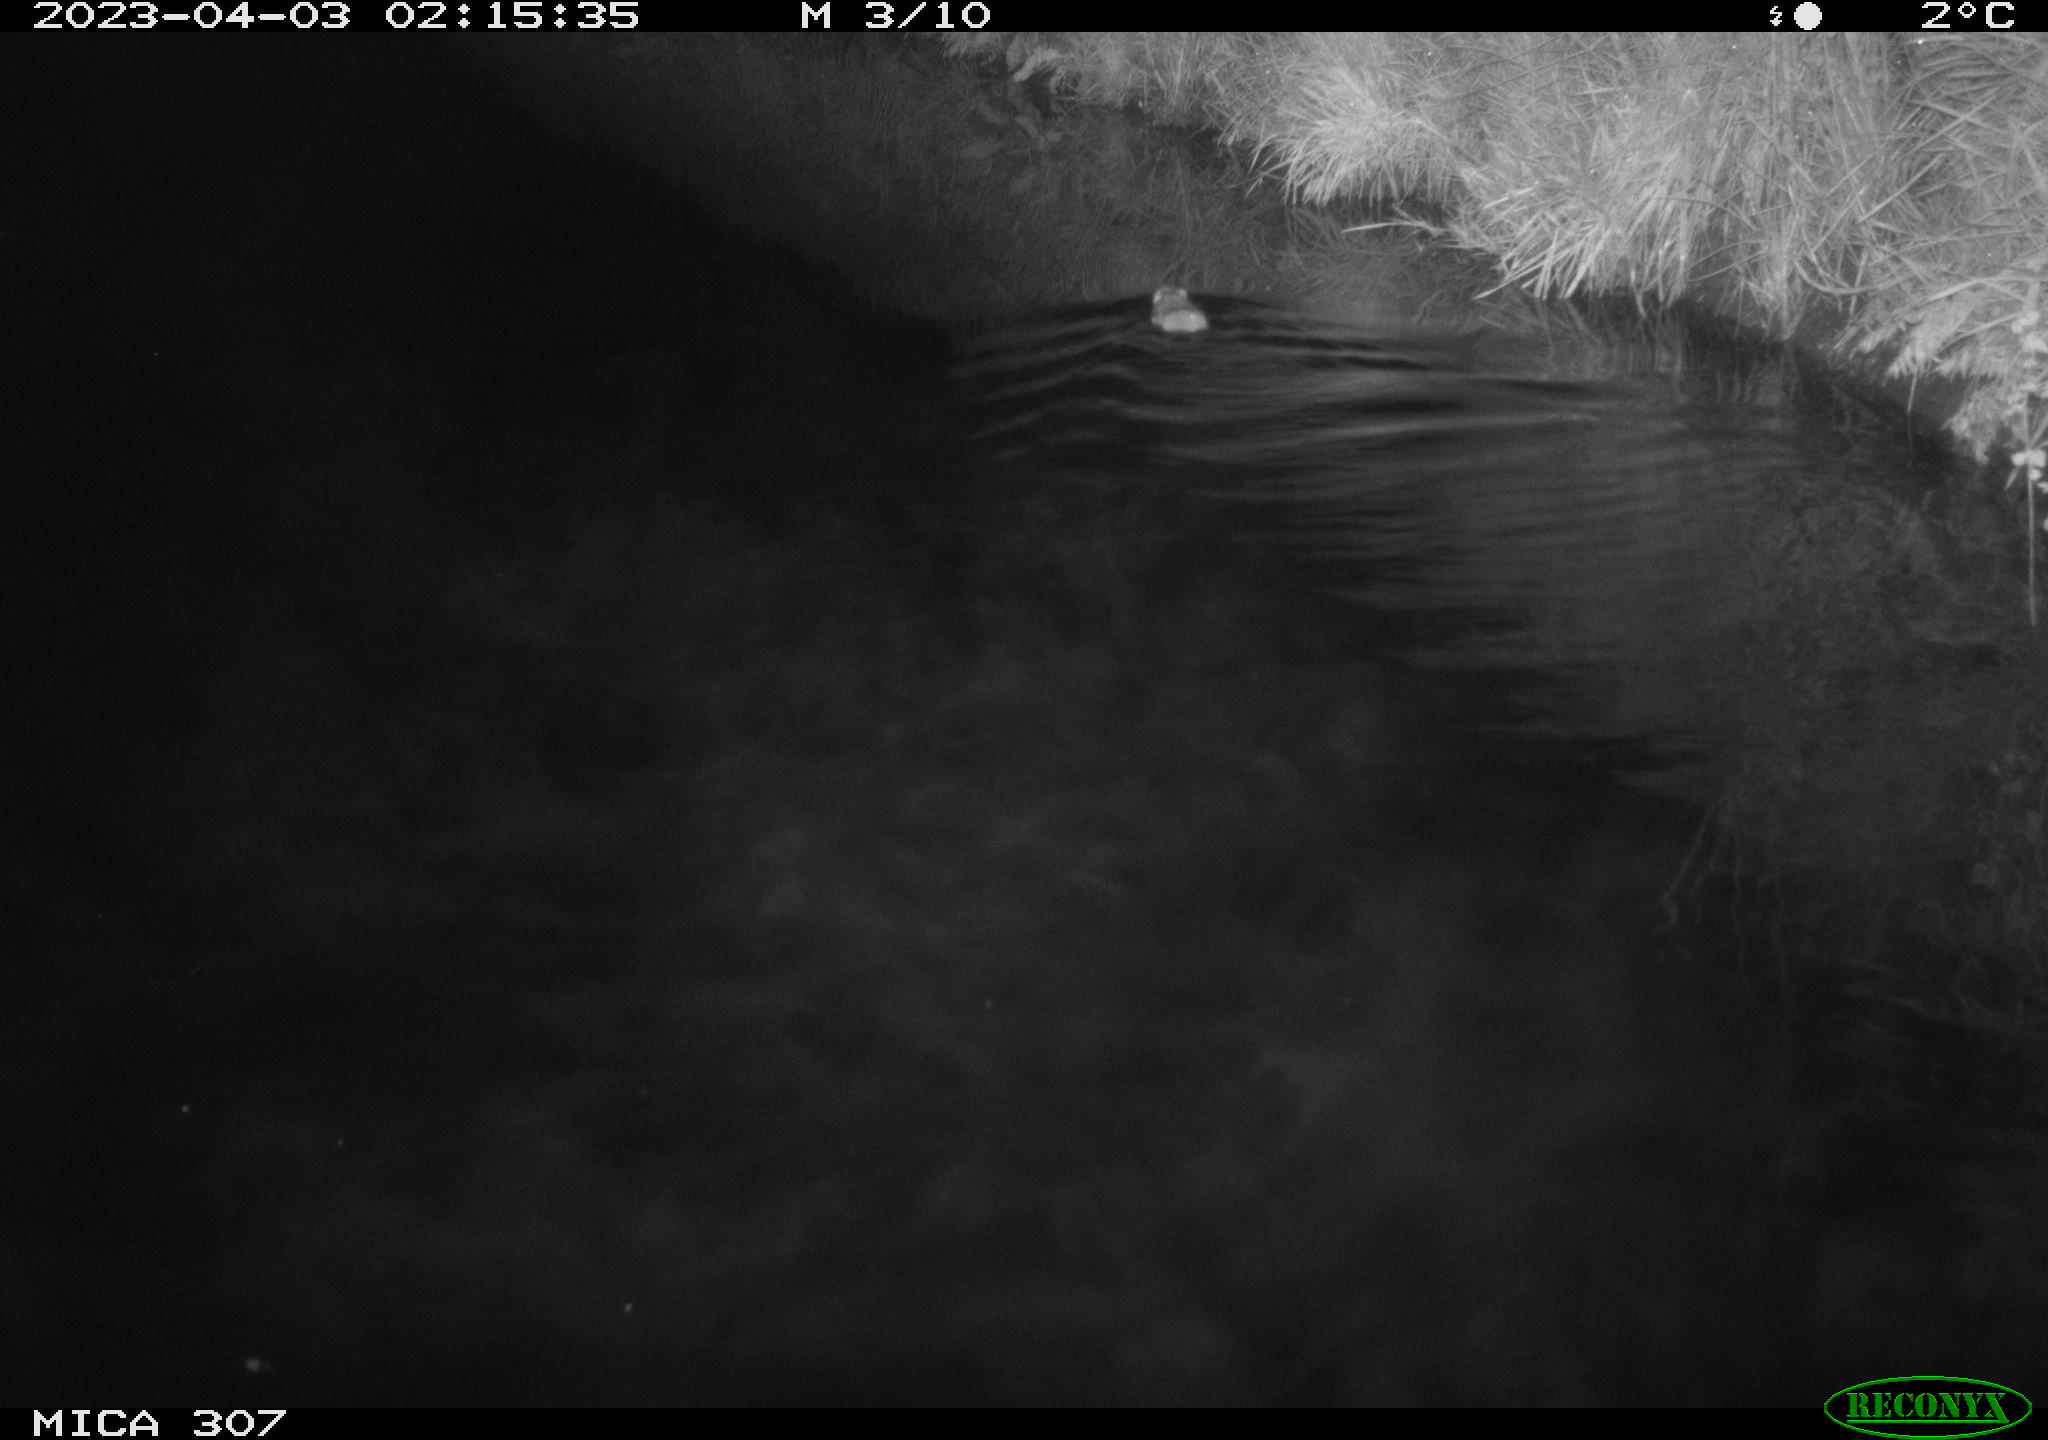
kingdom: Animalia
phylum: Chordata
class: Mammalia
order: Rodentia
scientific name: Rodentia
